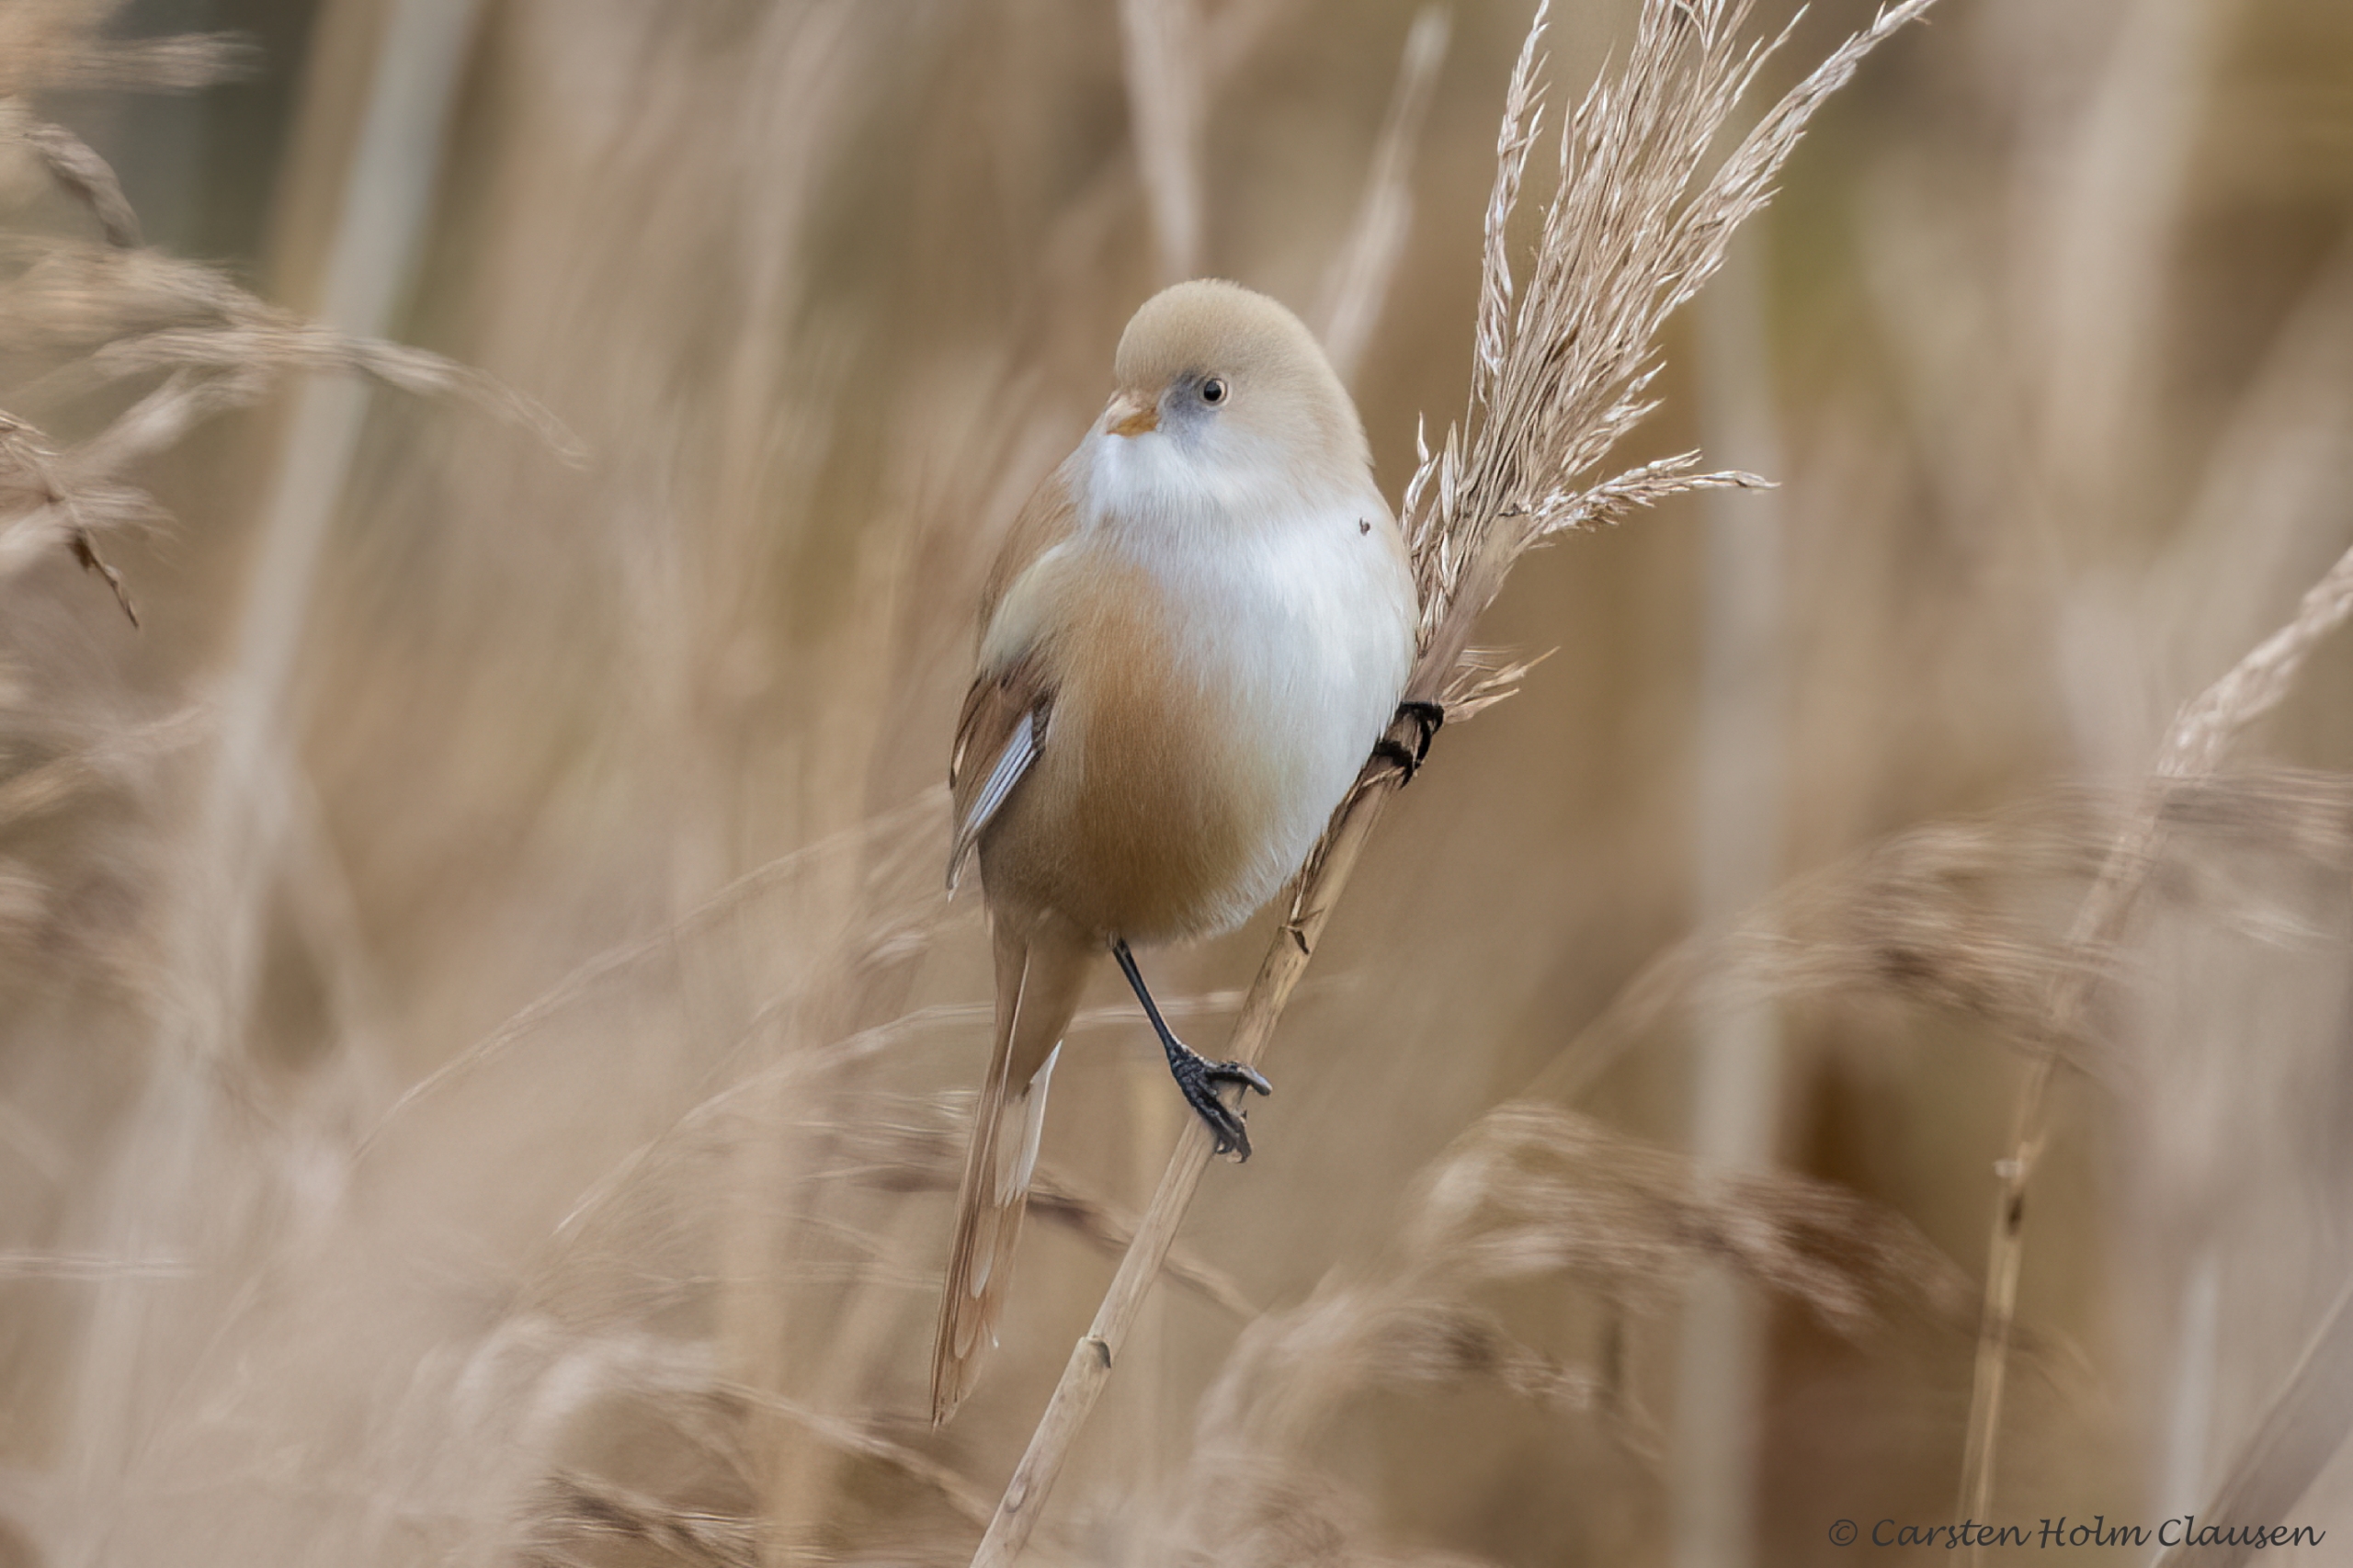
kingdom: Animalia
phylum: Chordata
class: Aves
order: Passeriformes
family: Panuridae
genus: Panurus
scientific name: Panurus biarmicus
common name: Skægmejse
